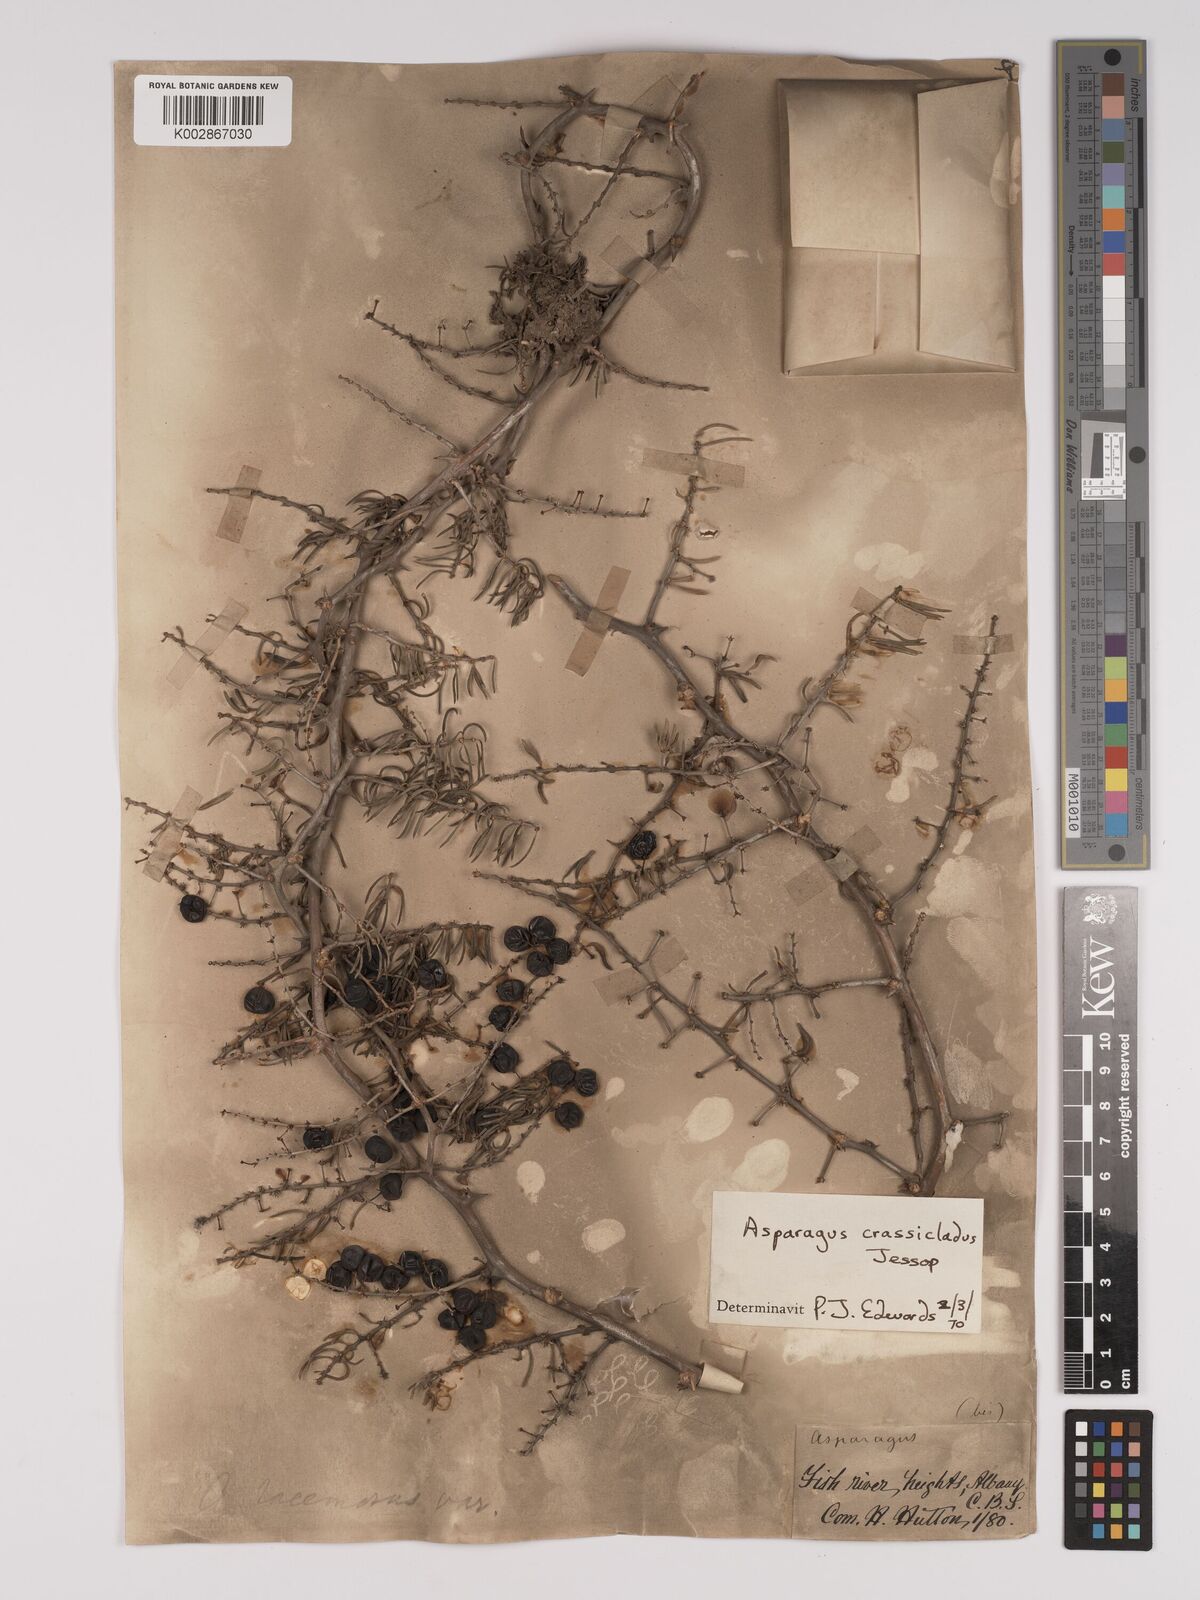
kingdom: Plantae
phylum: Tracheophyta
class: Liliopsida
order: Asparagales
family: Asparagaceae
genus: Asparagus
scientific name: Asparagus crassicladus
